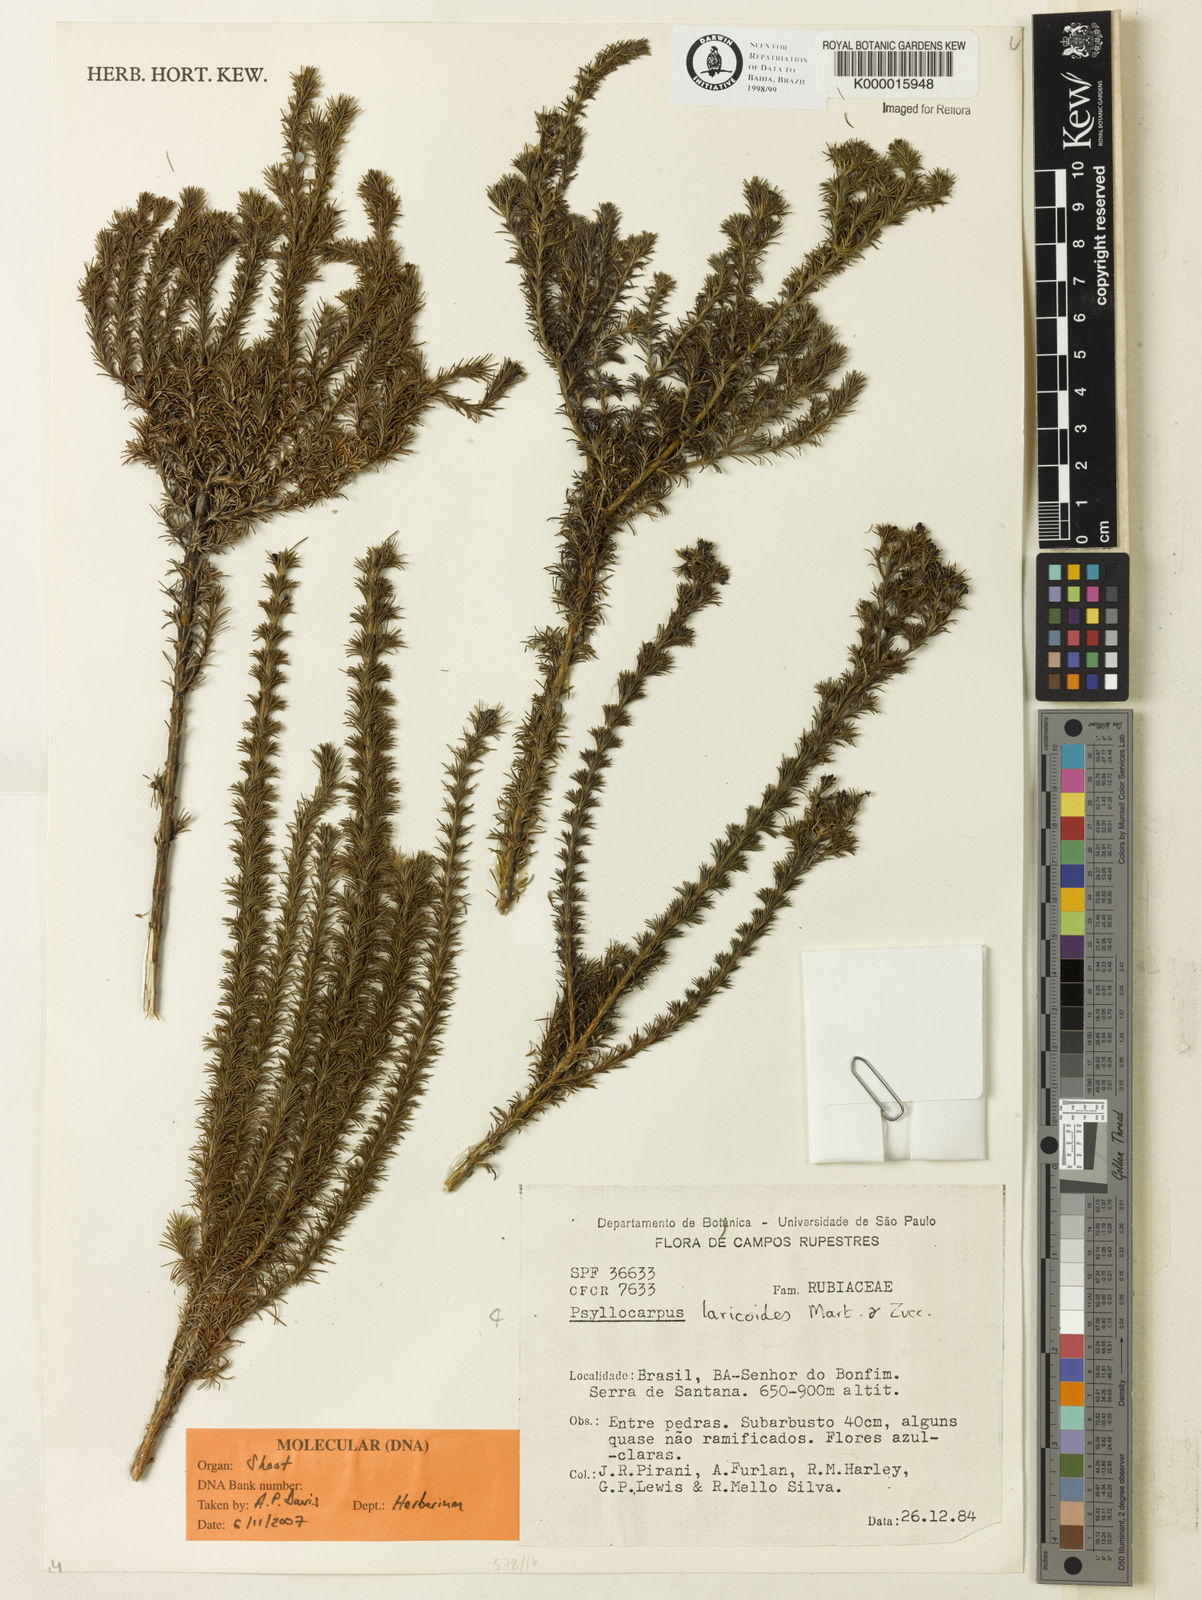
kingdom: Plantae
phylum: Tracheophyta
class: Magnoliopsida
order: Gentianales
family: Rubiaceae
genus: Psyllocarpus
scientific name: Psyllocarpus laricoides
